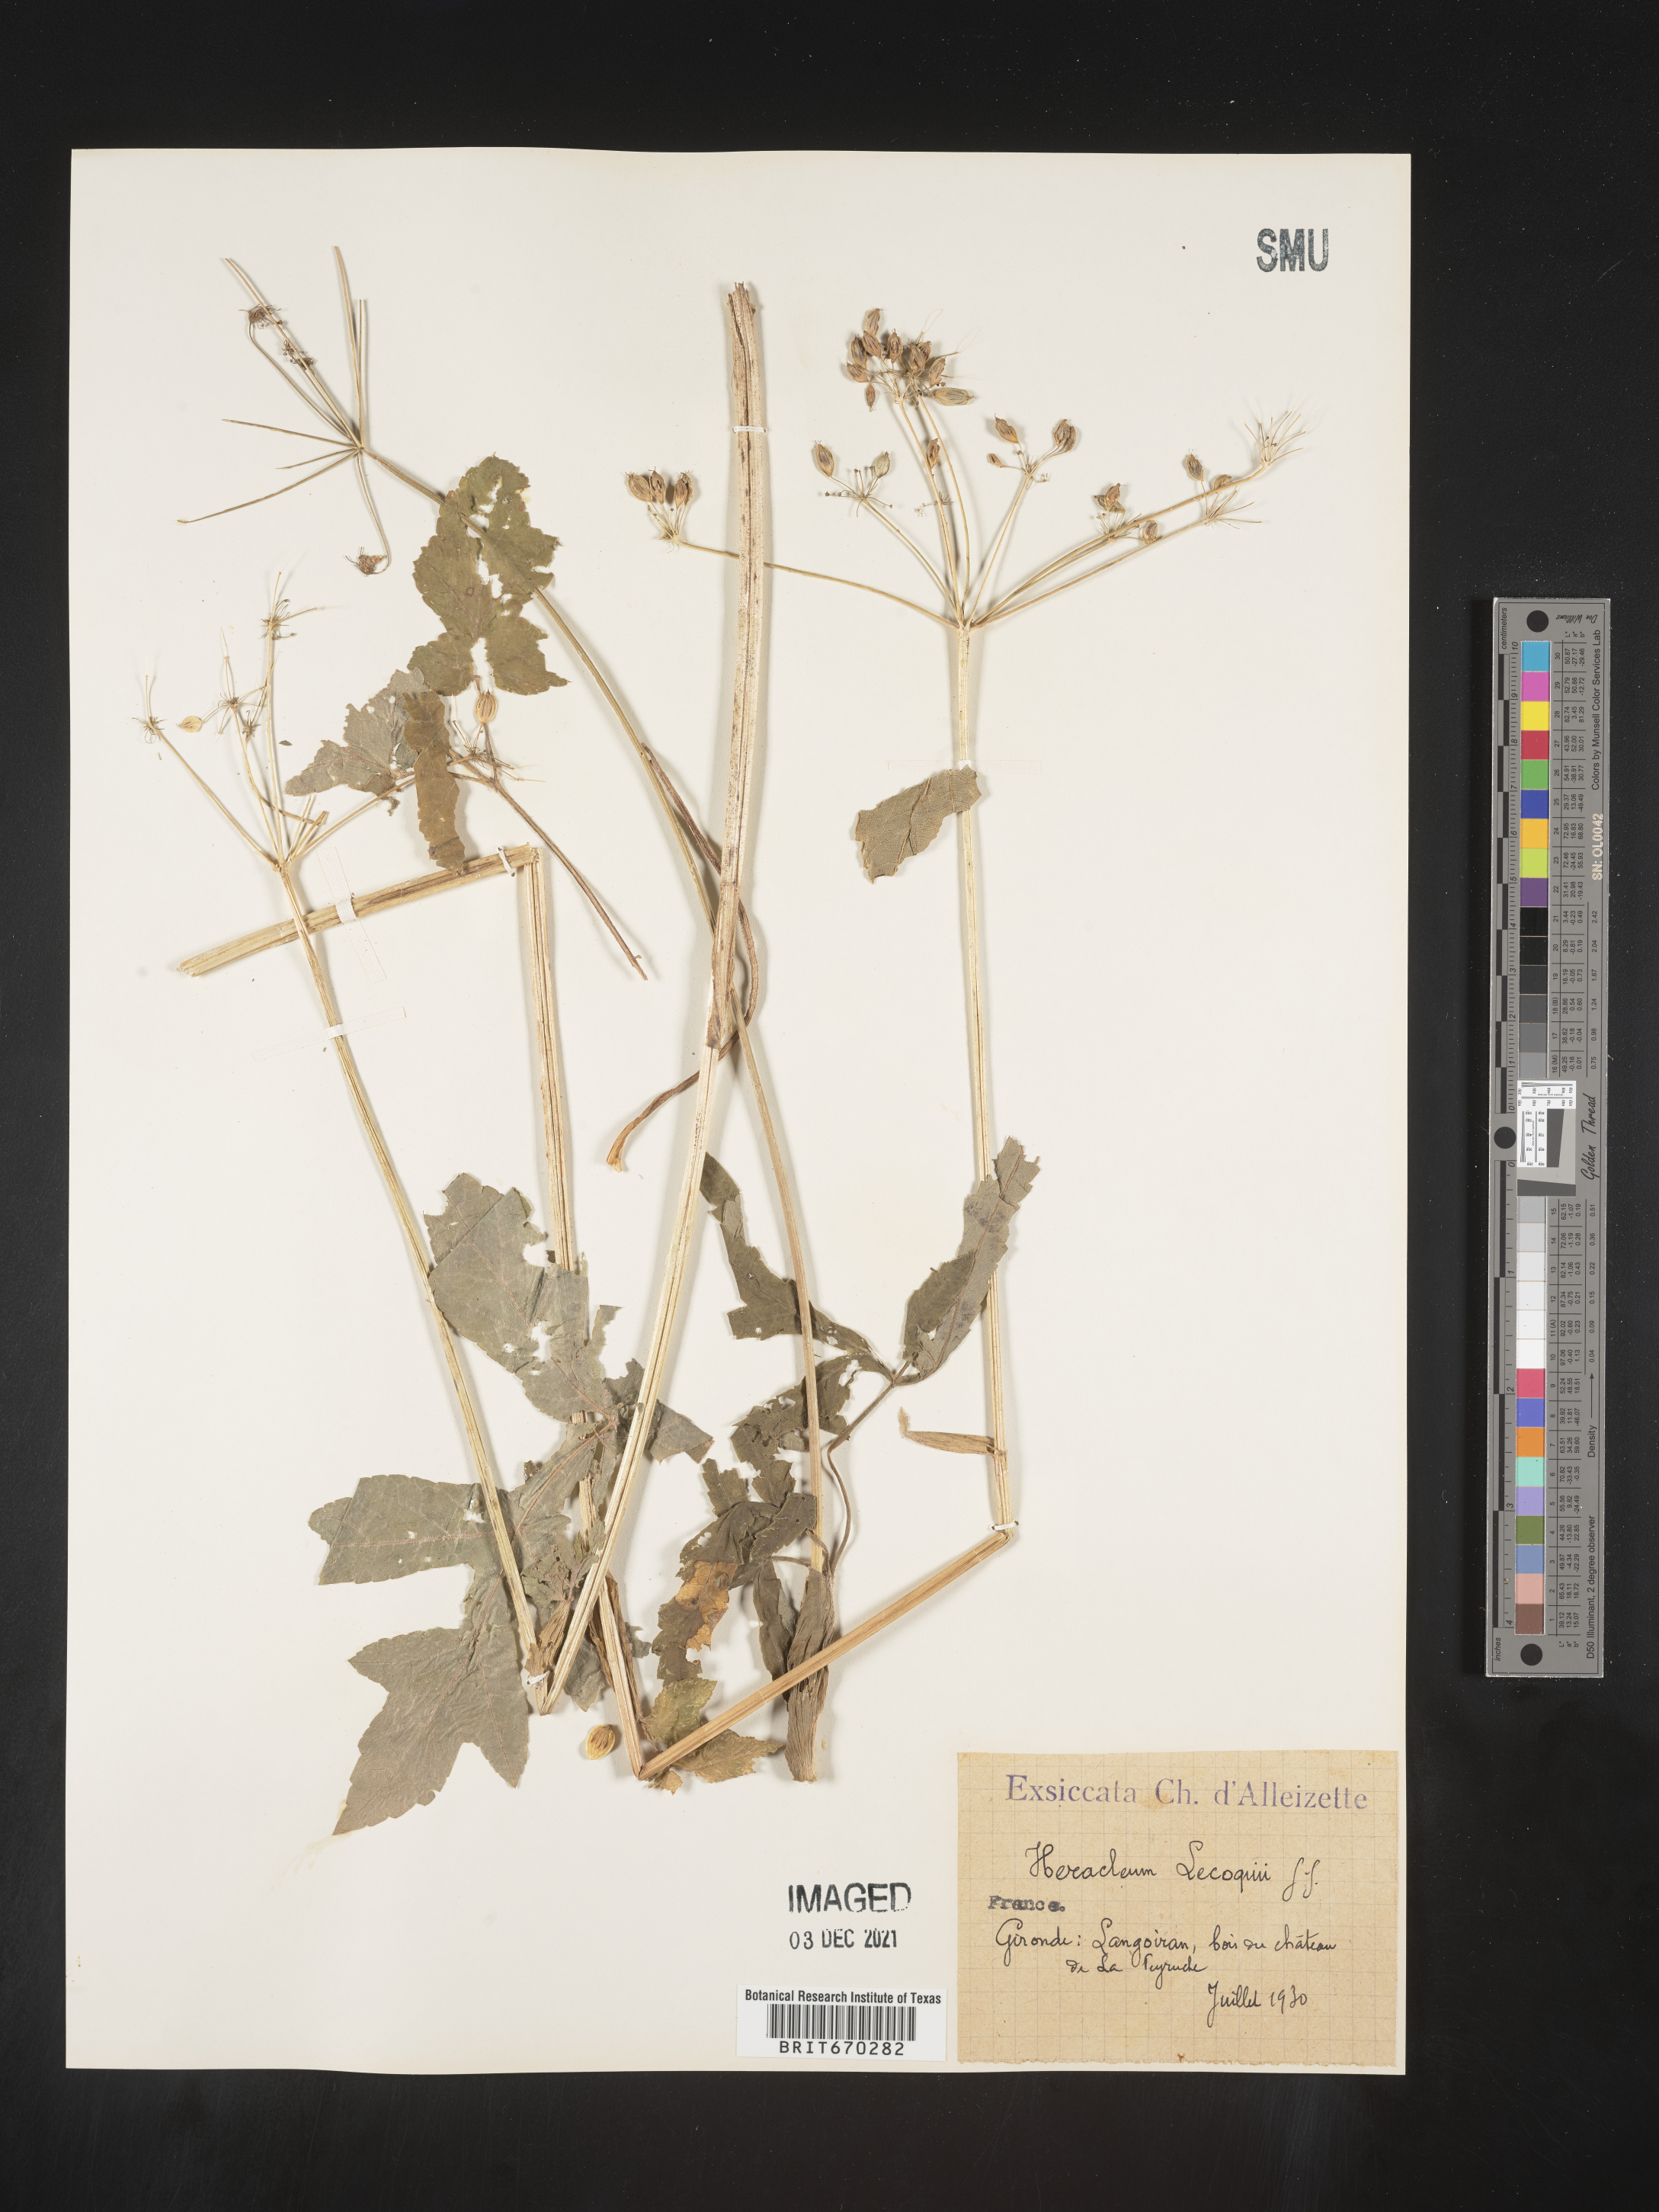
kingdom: Plantae
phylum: Tracheophyta
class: Magnoliopsida
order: Apiales
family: Apiaceae
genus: Heracleum
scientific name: Heracleum
